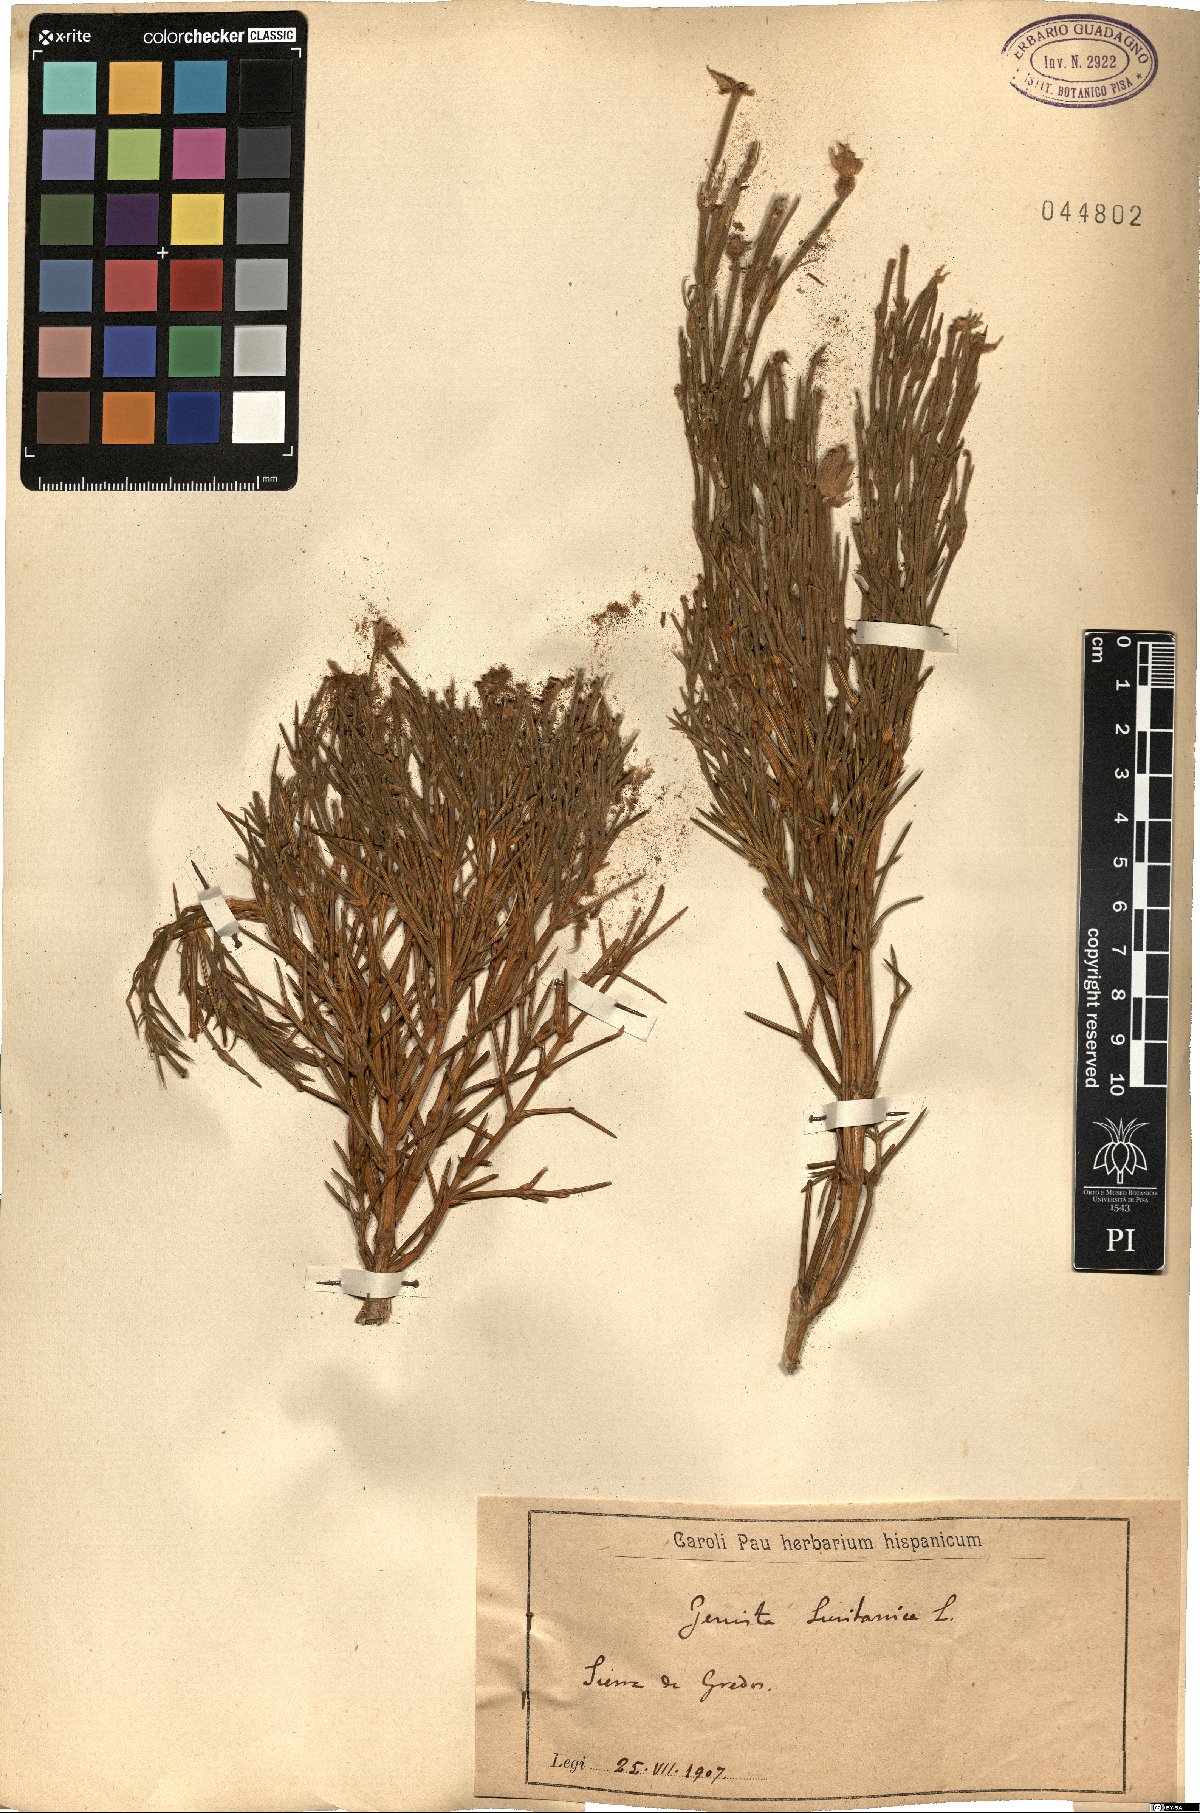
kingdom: Plantae
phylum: Tracheophyta
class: Magnoliopsida
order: Fabales
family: Fabaceae
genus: Echinospartum
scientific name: Echinospartum lusitanicum
